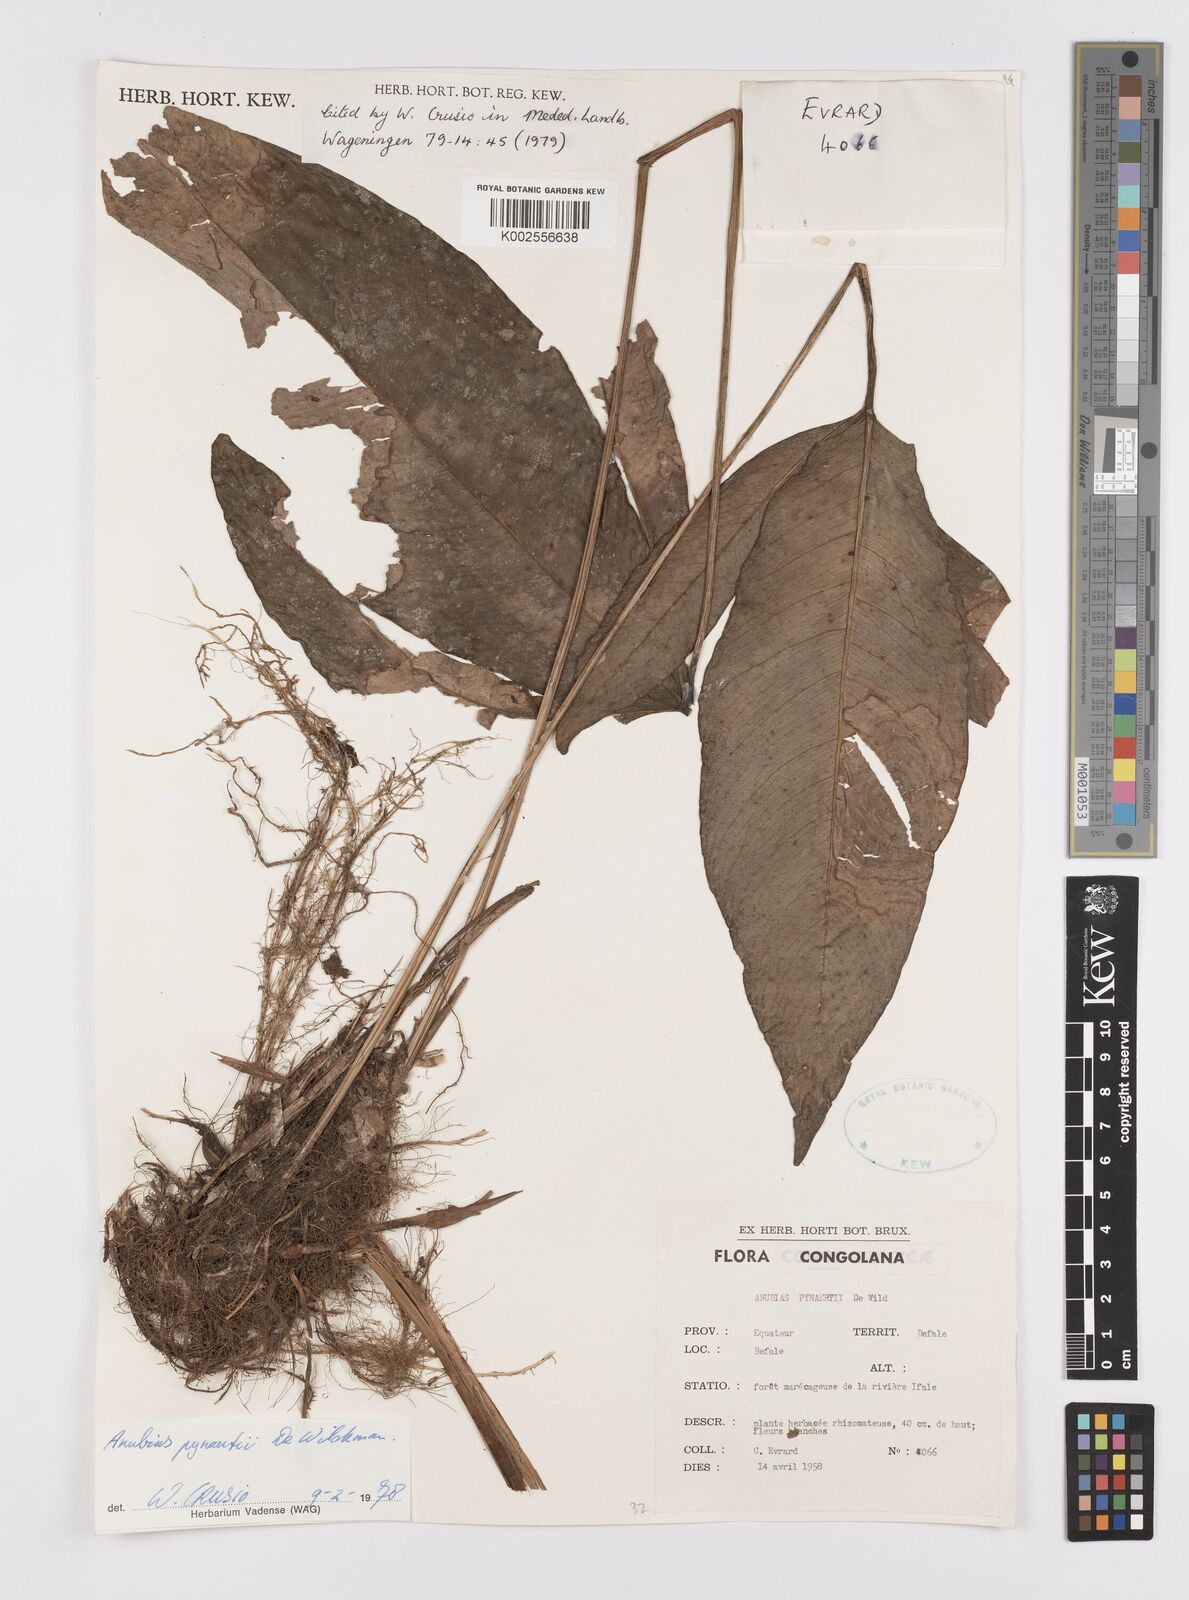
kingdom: Plantae
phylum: Tracheophyta
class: Liliopsida
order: Alismatales
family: Araceae
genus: Anubias
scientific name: Anubias pynaertii
